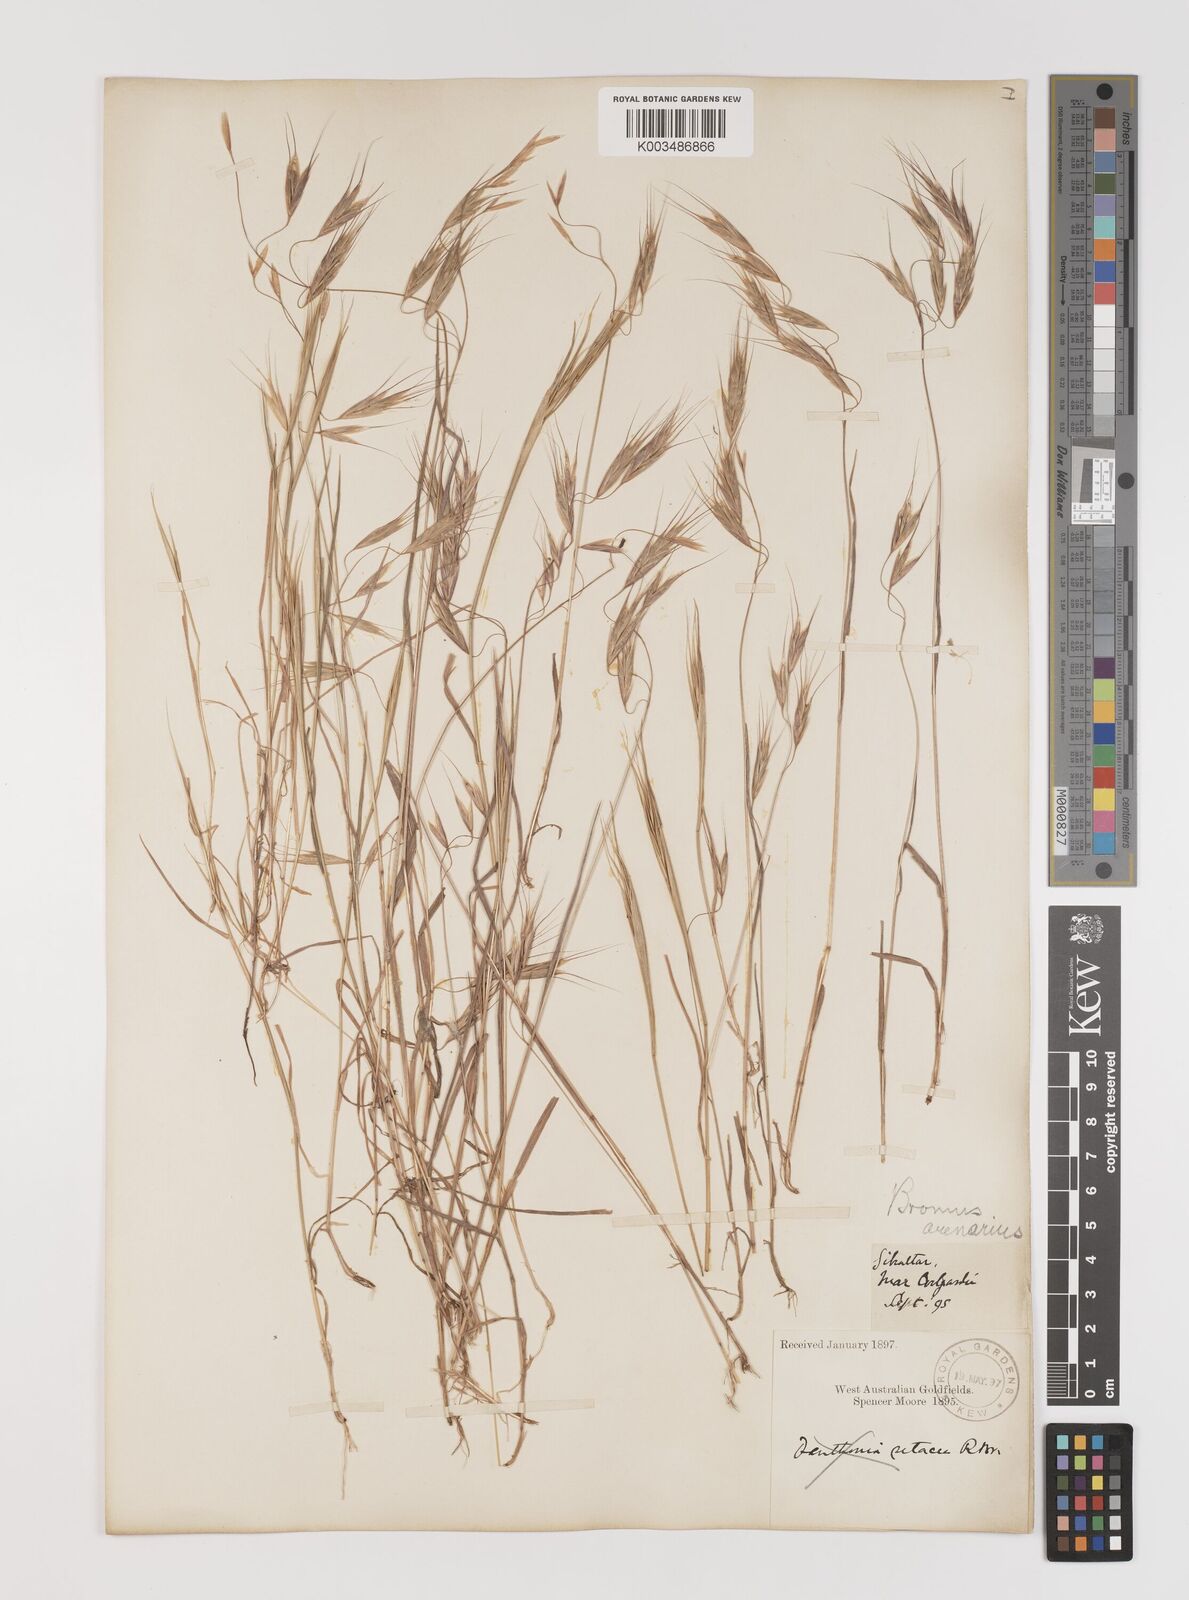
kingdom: Plantae
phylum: Tracheophyta
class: Liliopsida
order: Poales
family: Poaceae
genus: Bromus
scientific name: Bromus arenarius
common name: Australian brome
